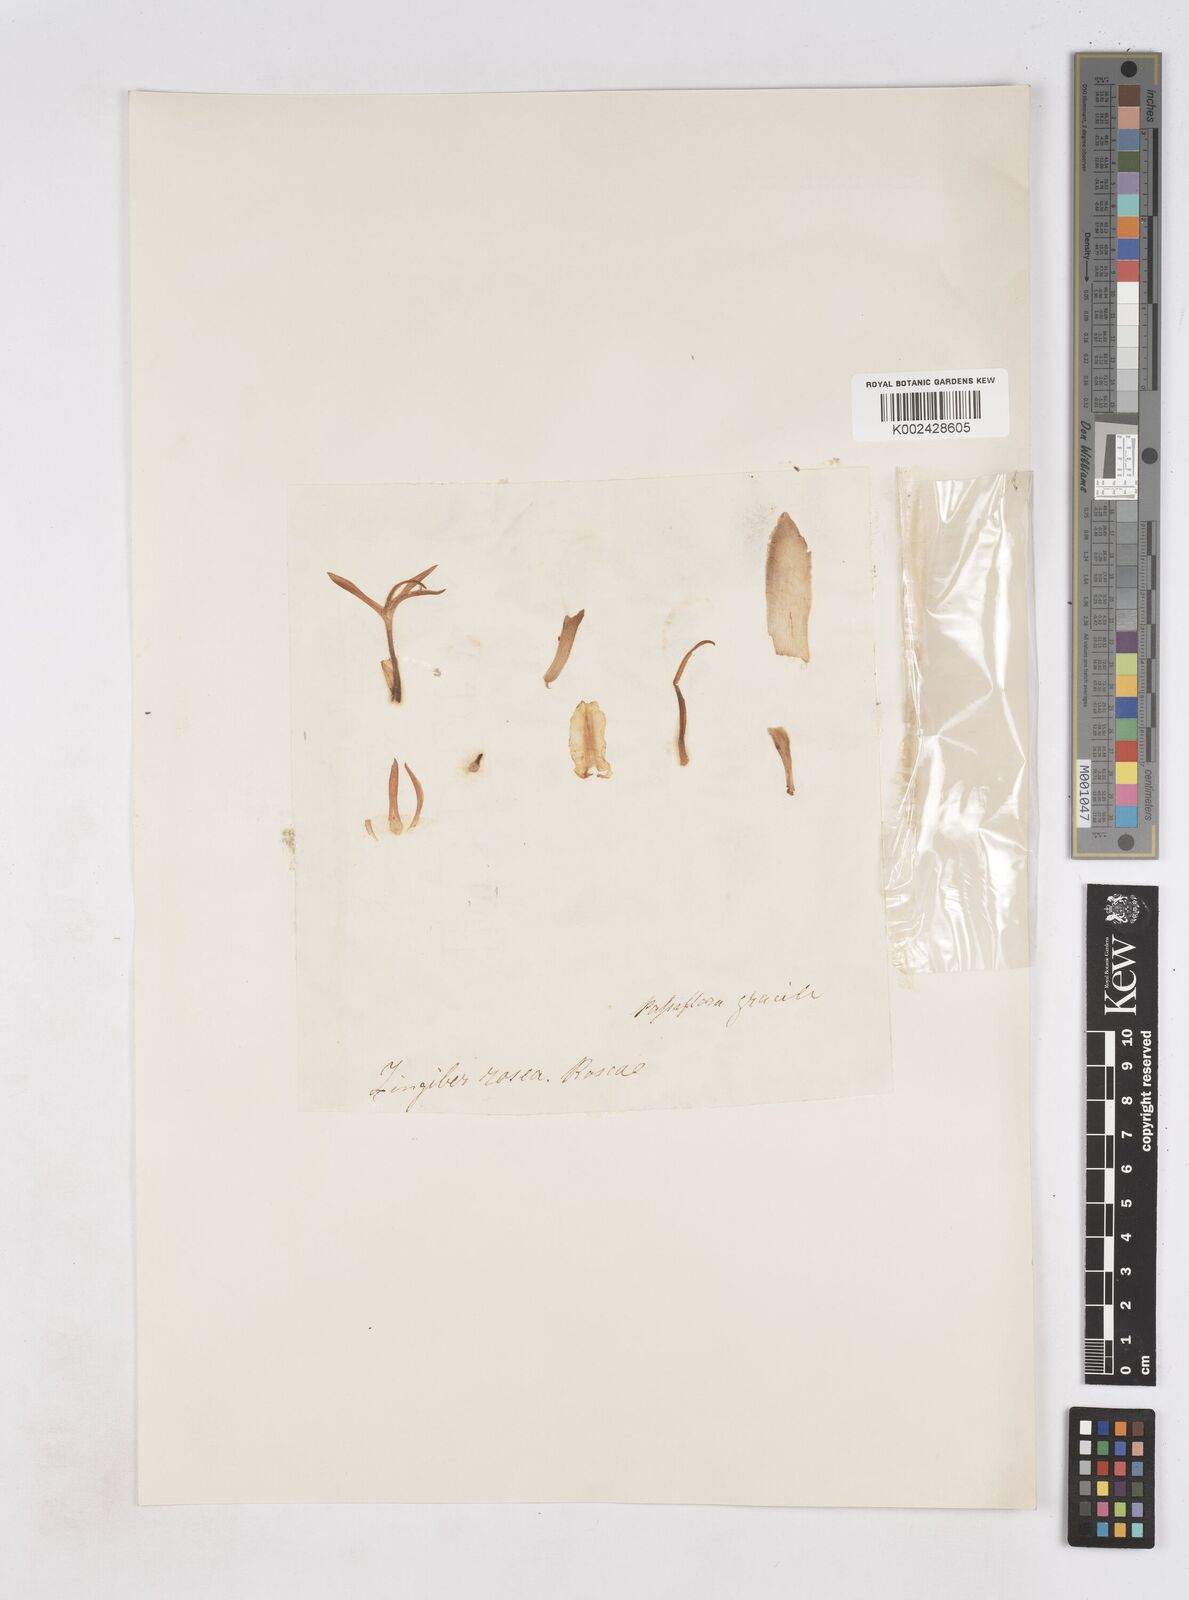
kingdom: Plantae
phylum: Tracheophyta
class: Liliopsida
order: Zingiberales
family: Zingiberaceae
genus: Zingiber
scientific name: Zingiber roseum
